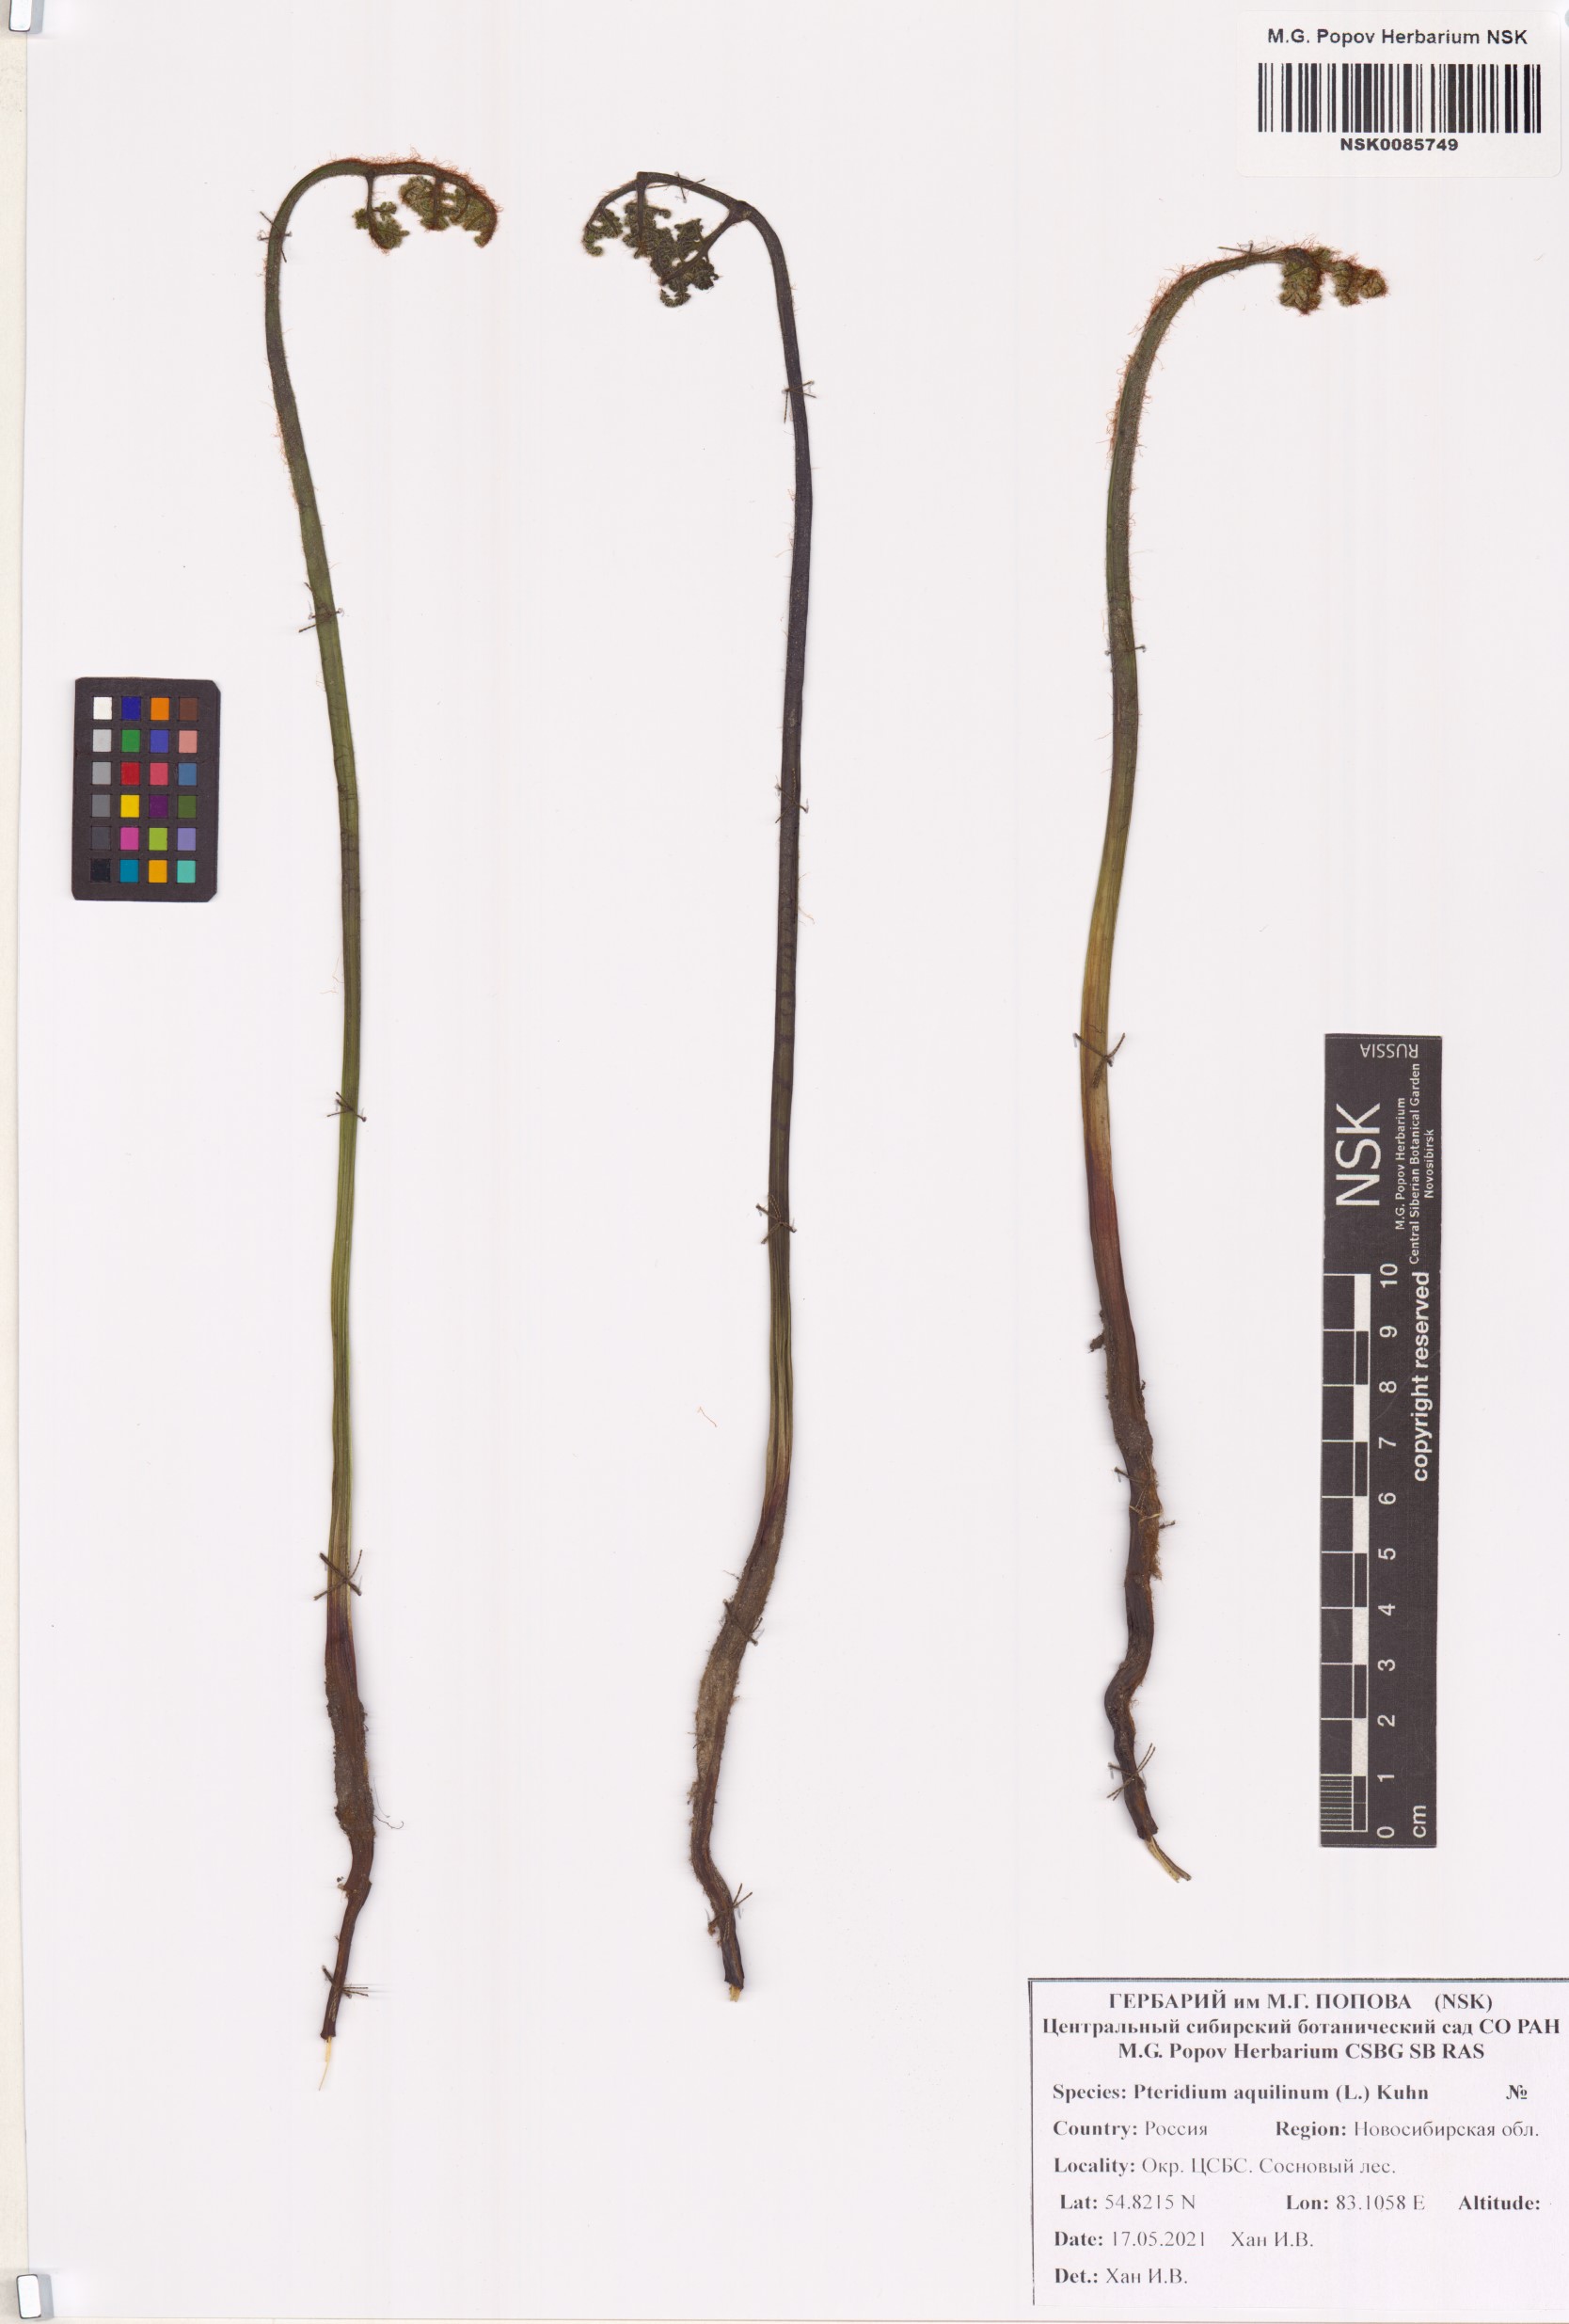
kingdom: Plantae
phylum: Tracheophyta
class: Polypodiopsida
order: Polypodiales
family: Dennstaedtiaceae
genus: Pteridium
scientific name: Pteridium aquilinum
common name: Bracken
